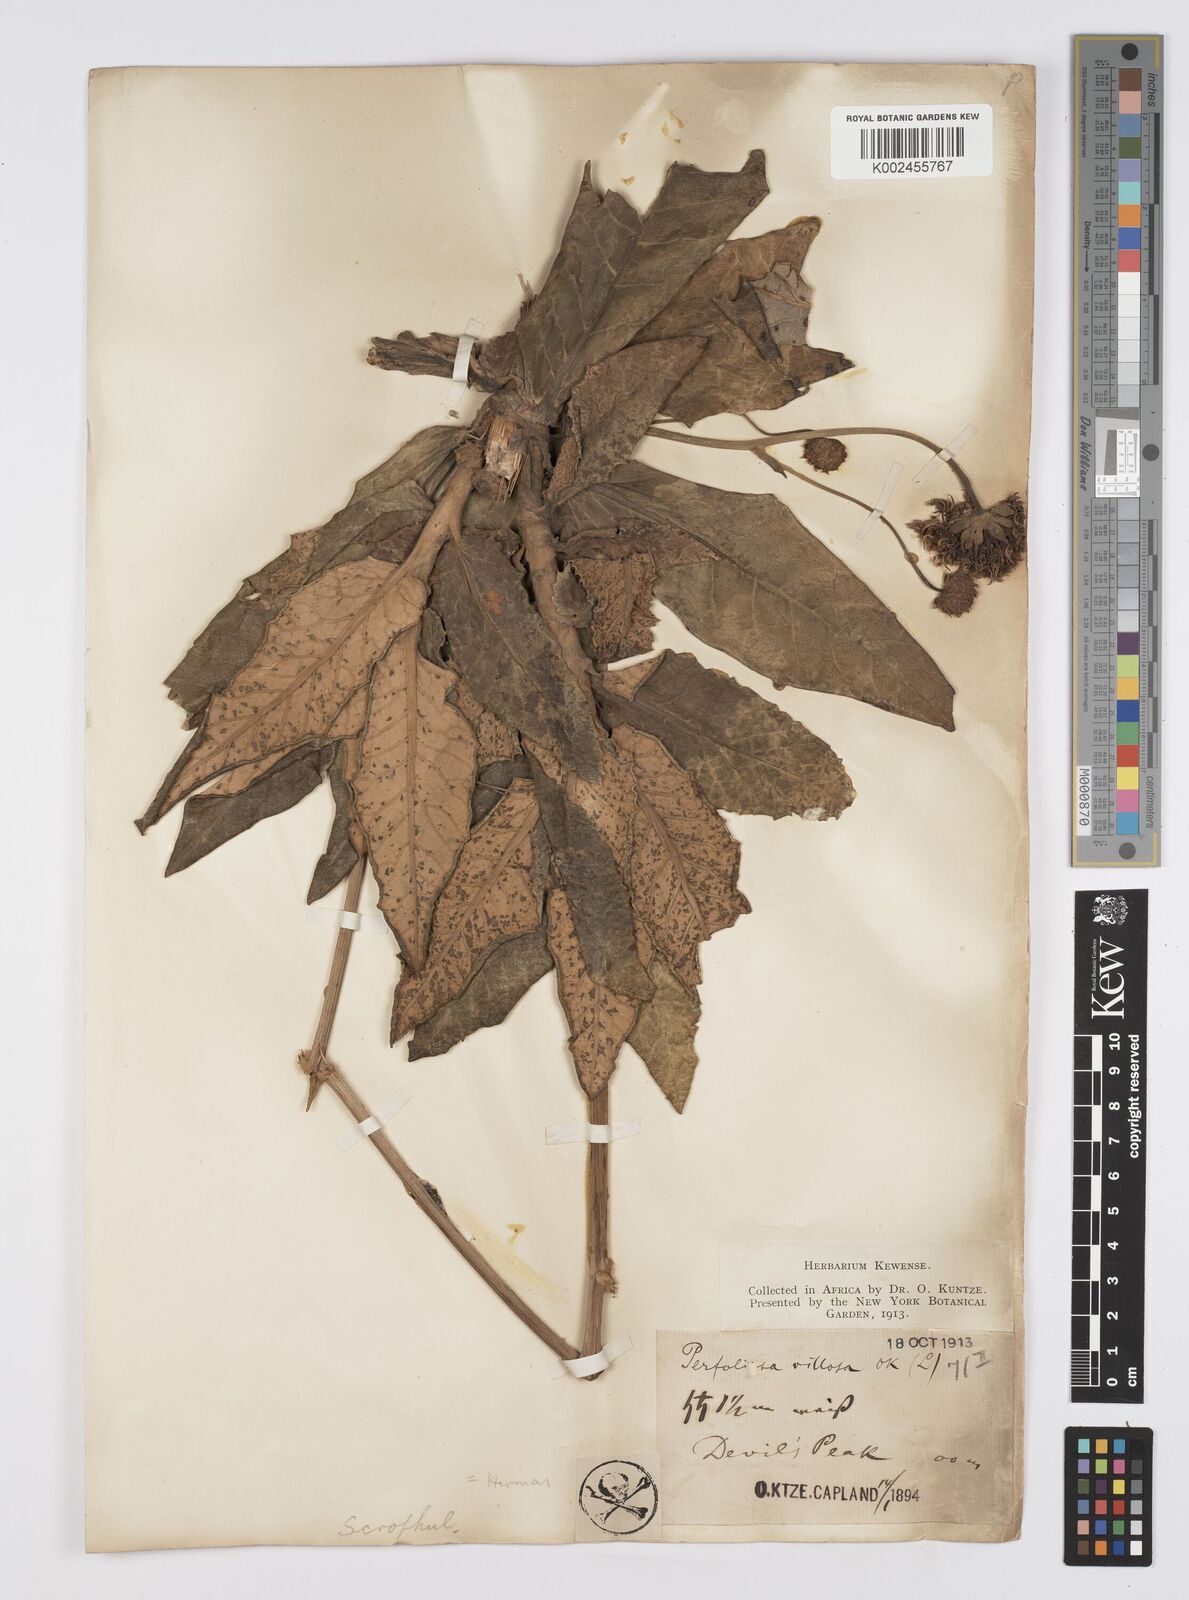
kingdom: Plantae
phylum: Tracheophyta
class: Magnoliopsida
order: Apiales
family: Apiaceae
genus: Hermas
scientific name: Hermas villosa
